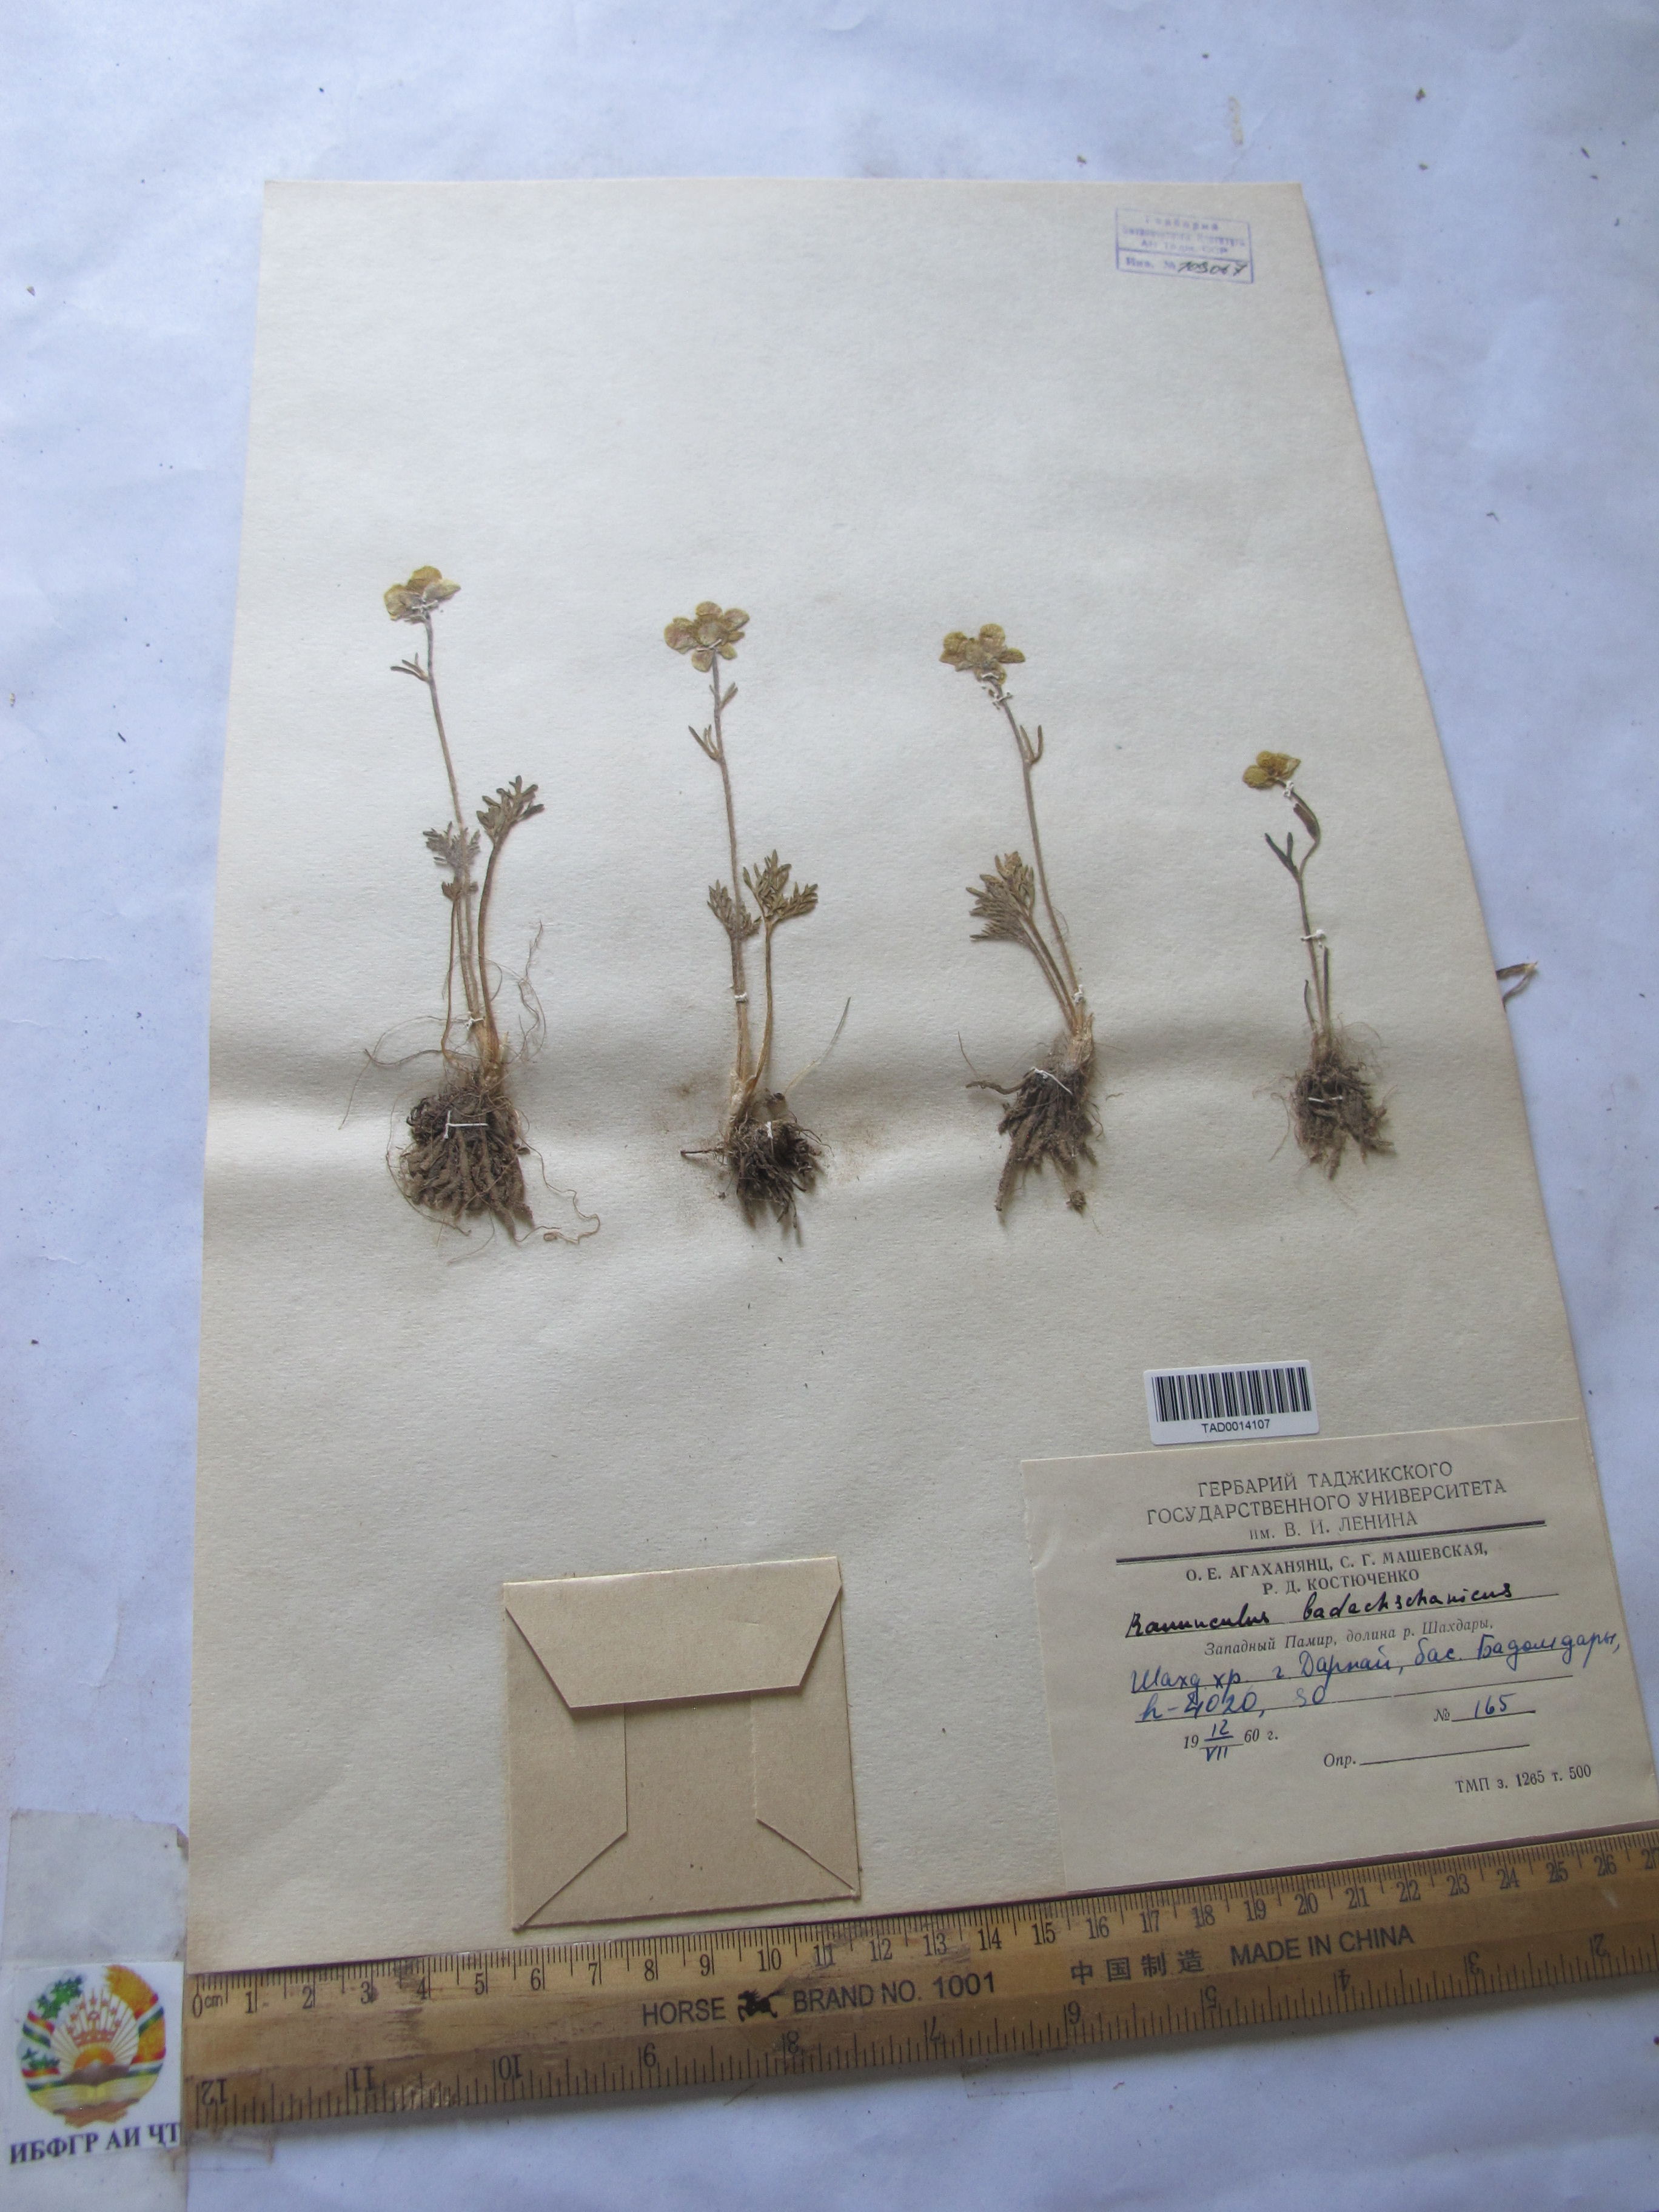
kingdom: Plantae
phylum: Tracheophyta
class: Magnoliopsida
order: Ranunculales
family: Ranunculaceae
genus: Ranunculus
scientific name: Ranunculus badachschanicus
